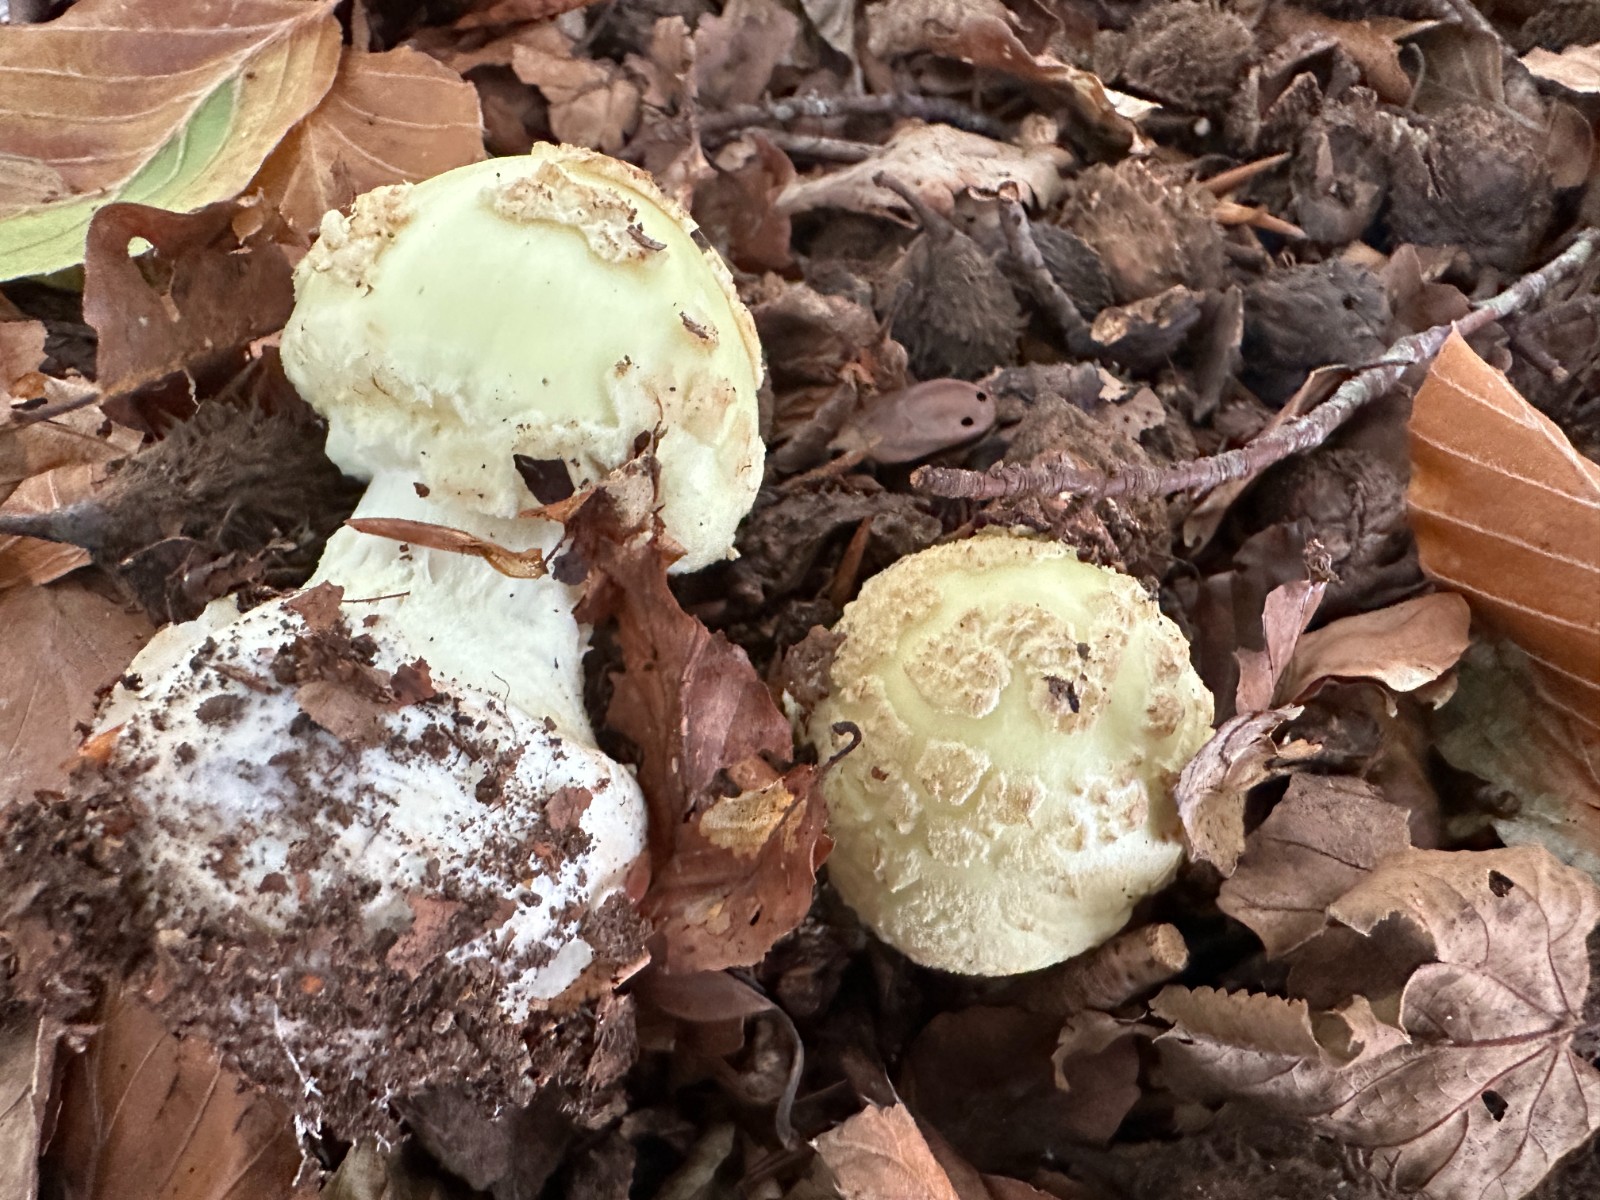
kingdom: Fungi
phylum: Basidiomycota
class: Agaricomycetes
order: Agaricales
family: Amanitaceae
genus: Amanita
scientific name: Amanita citrina
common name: kugleknoldet fluesvamp
